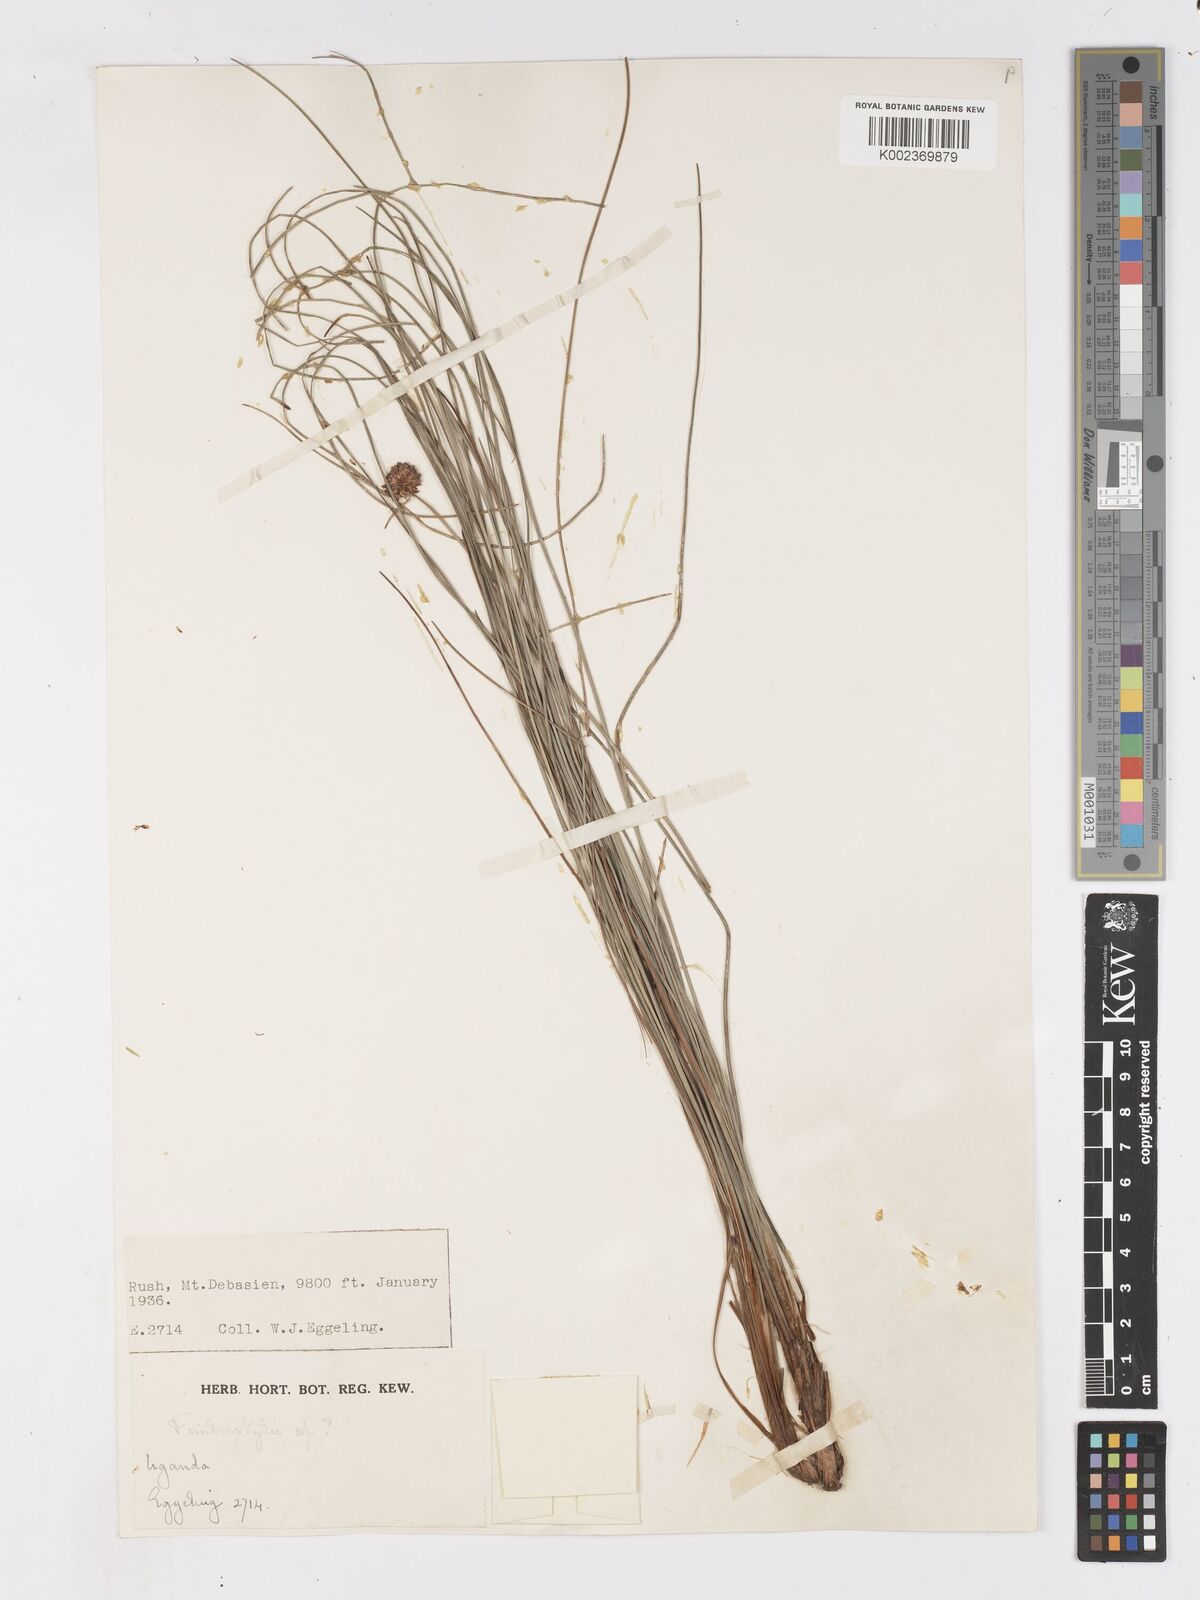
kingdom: Plantae
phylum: Tracheophyta
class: Liliopsida
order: Poales
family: Cyperaceae
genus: Ficinia
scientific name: Ficinia gracilis
